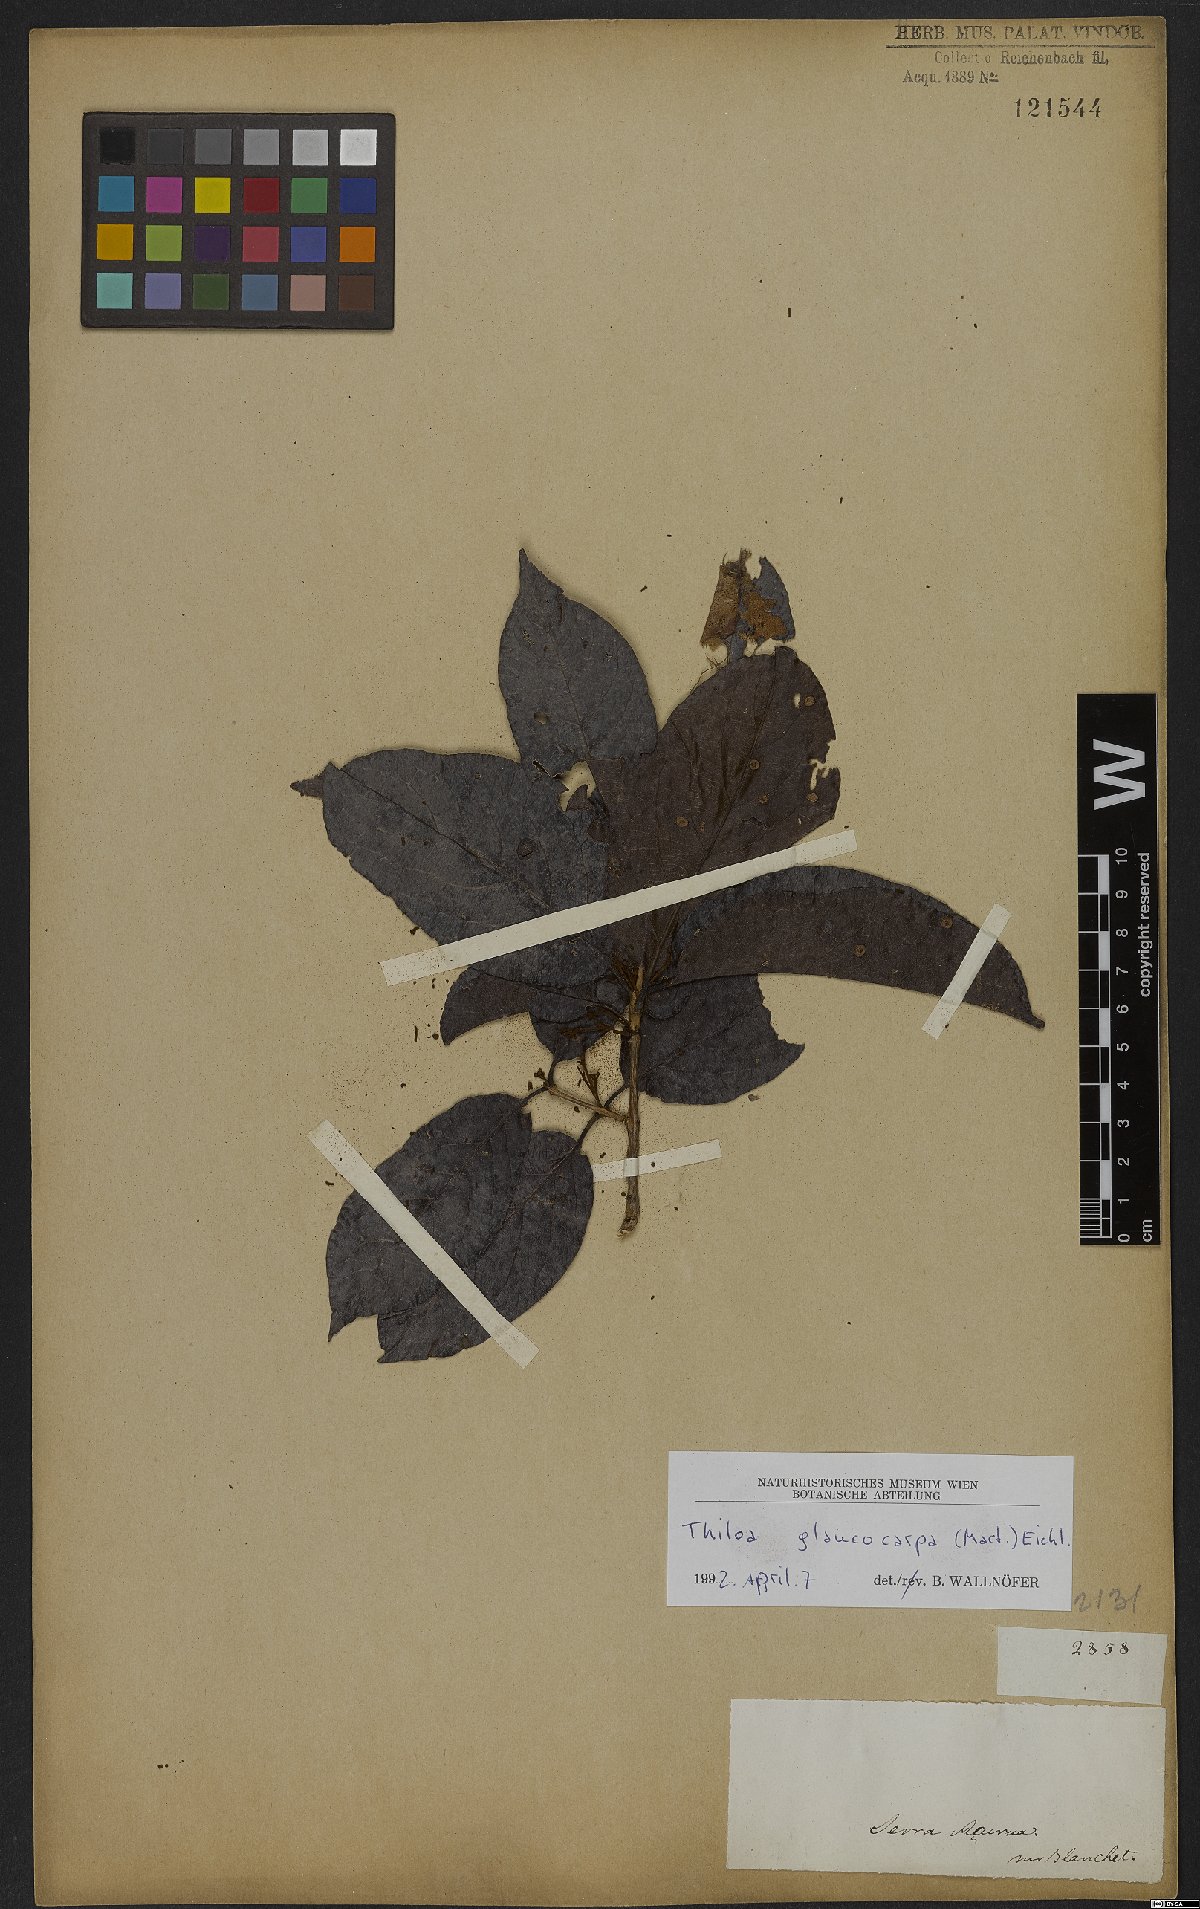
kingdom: Plantae
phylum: Tracheophyta
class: Magnoliopsida
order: Myrtales
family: Combretaceae
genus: Combretum
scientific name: Combretum glaucocarpum
